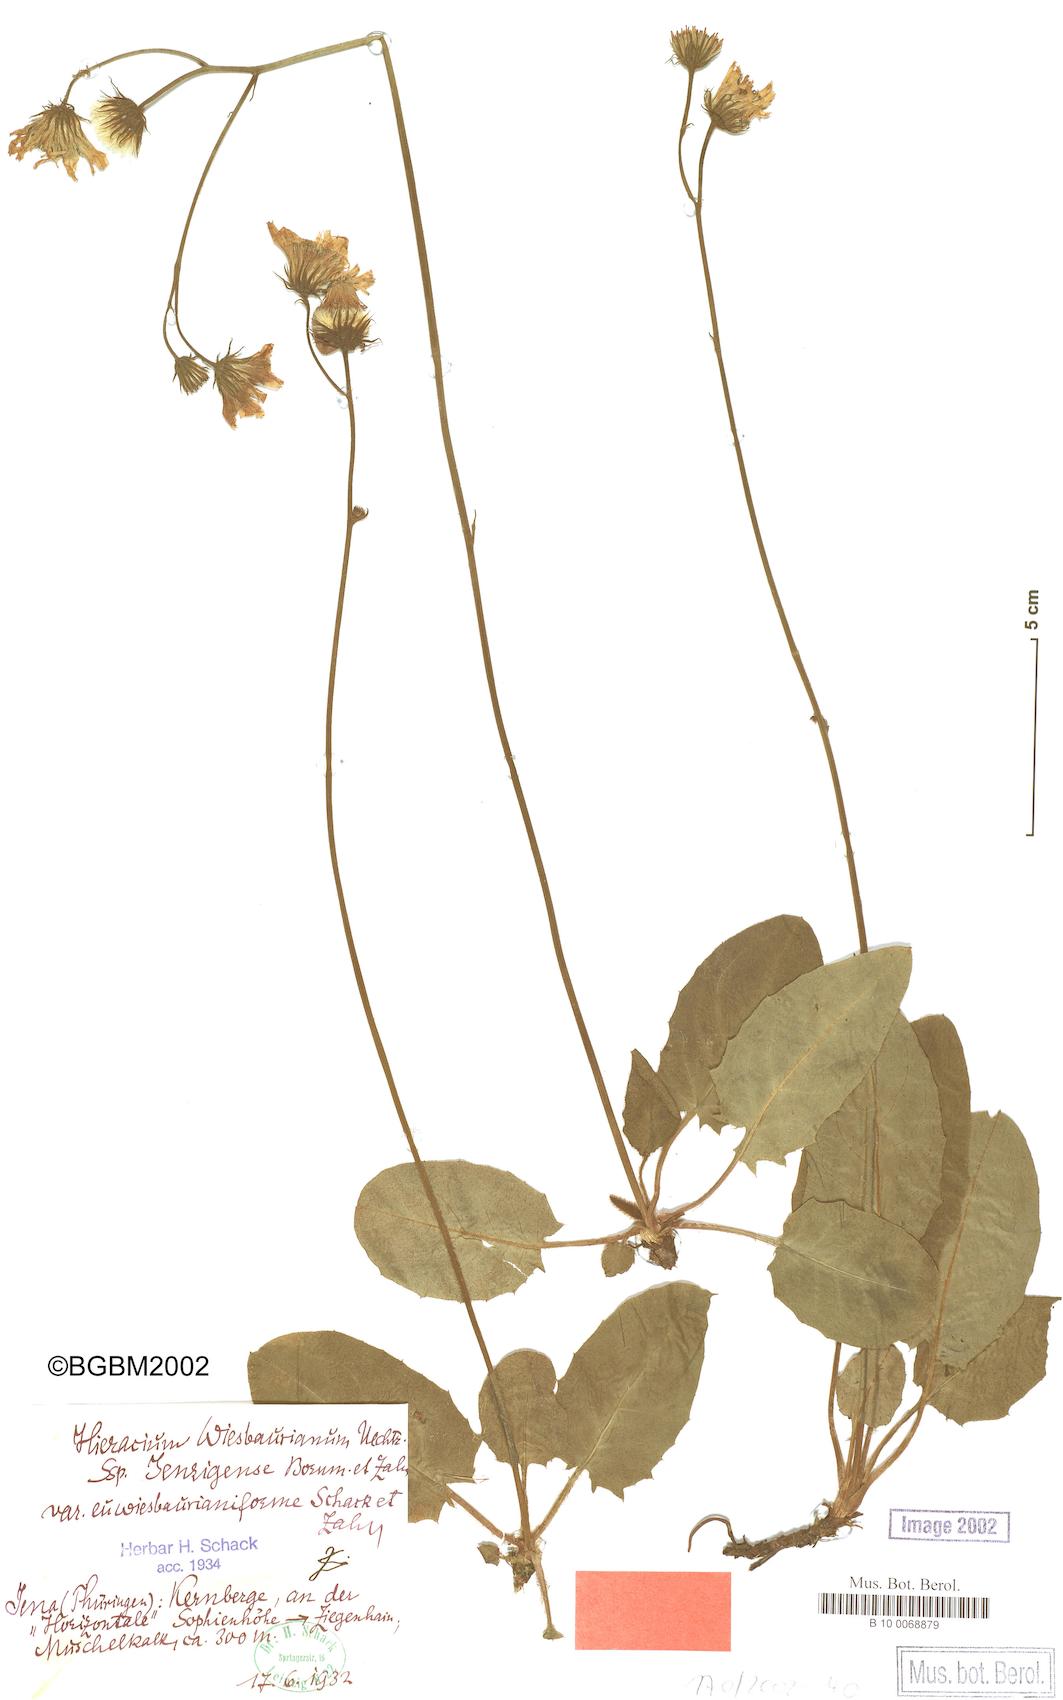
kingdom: Plantae
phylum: Tracheophyta
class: Magnoliopsida
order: Asterales
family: Asteraceae
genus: Hieracium
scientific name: Hieracium hypochoeroides
